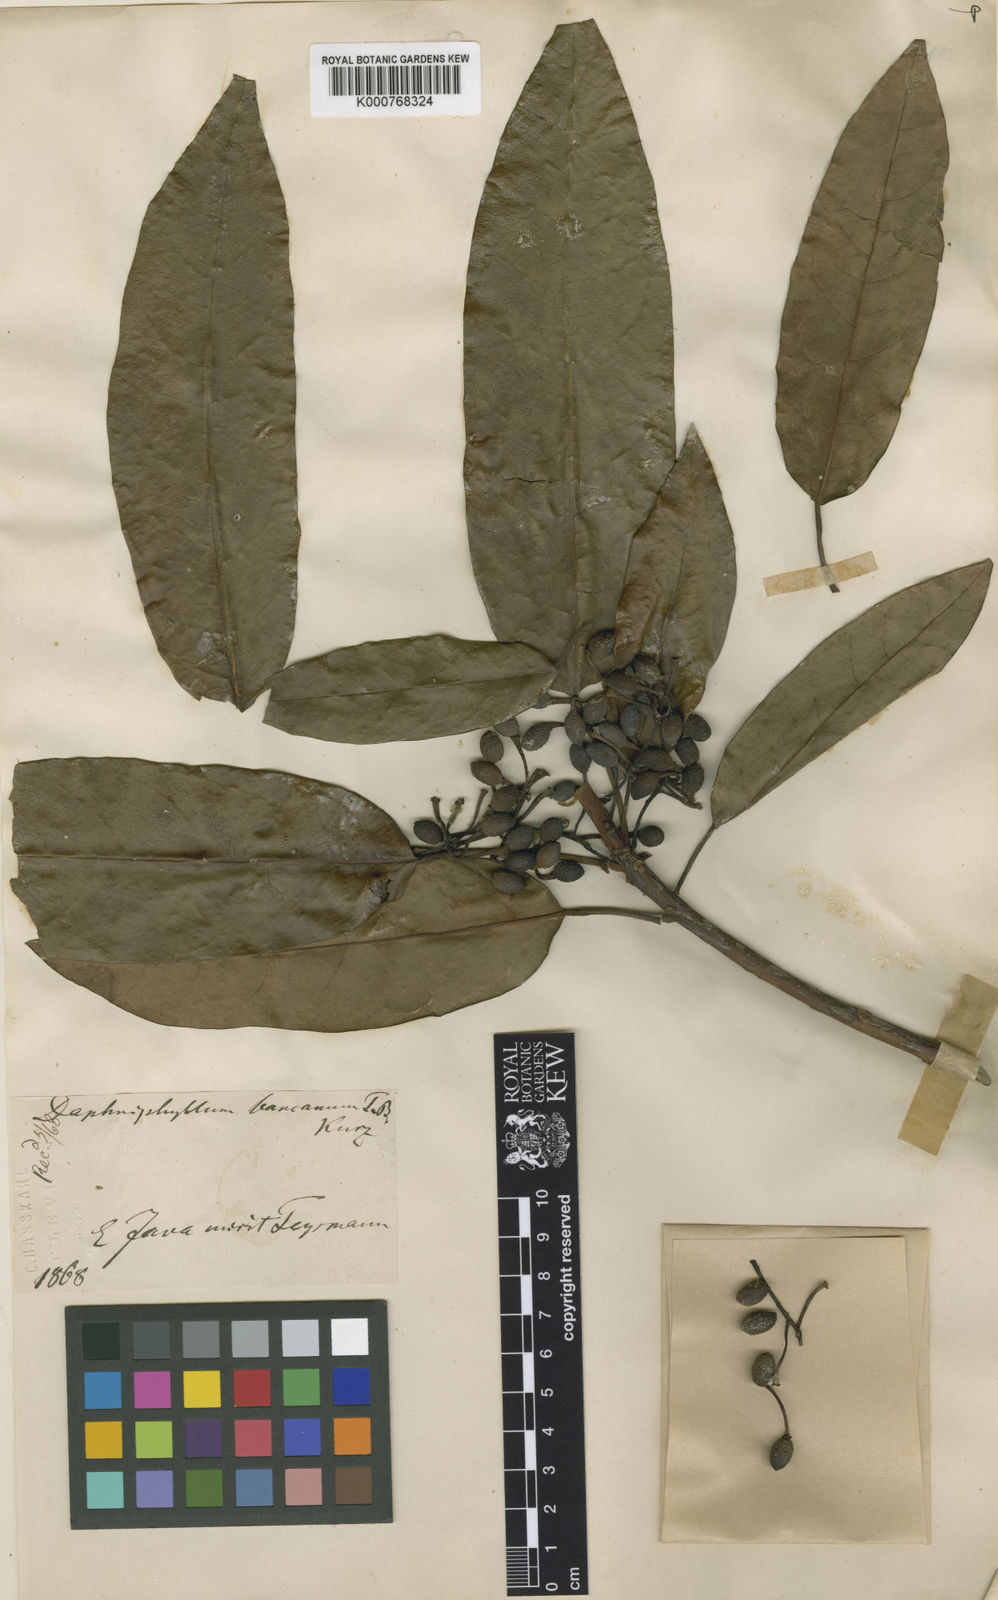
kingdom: Plantae
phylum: Tracheophyta
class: Magnoliopsida
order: Saxifragales
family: Daphniphyllaceae
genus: Daphniphyllum
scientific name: Daphniphyllum laurinum
